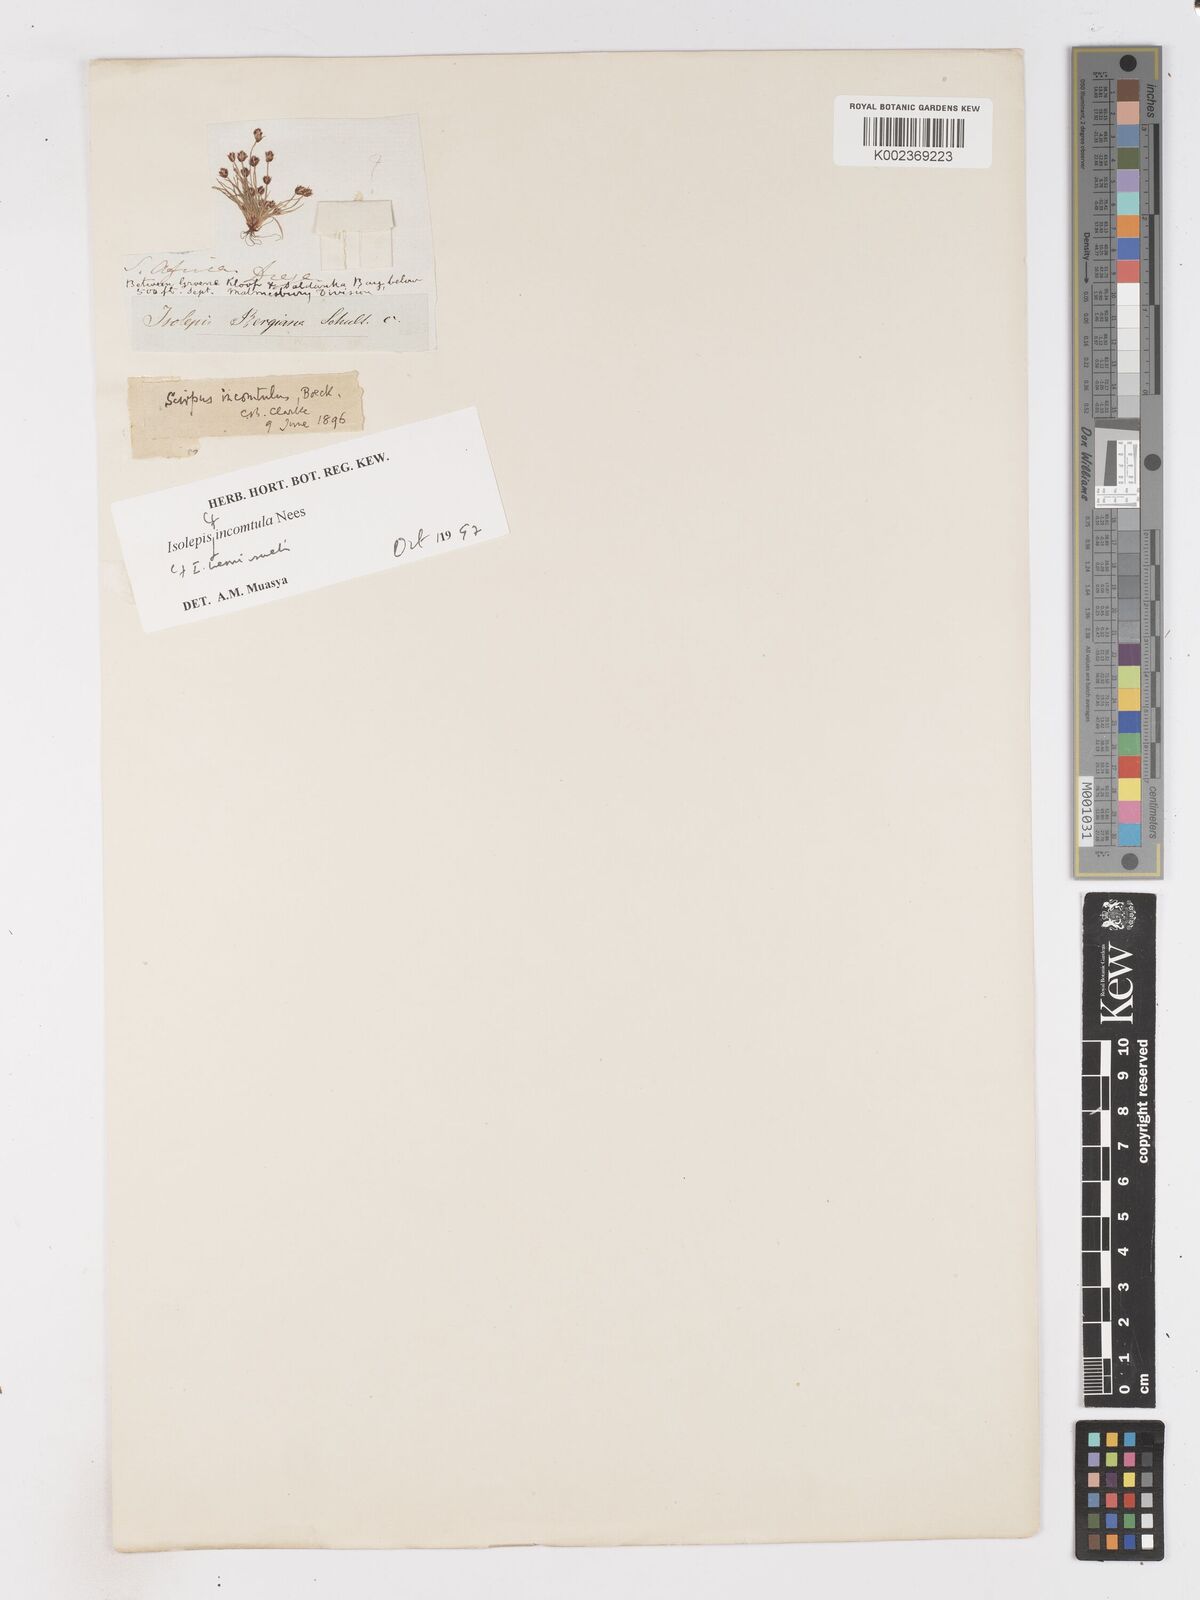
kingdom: Plantae
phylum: Tracheophyta
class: Liliopsida
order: Poales
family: Cyperaceae
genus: Ficinia
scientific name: Ficinia hemiuncialis
